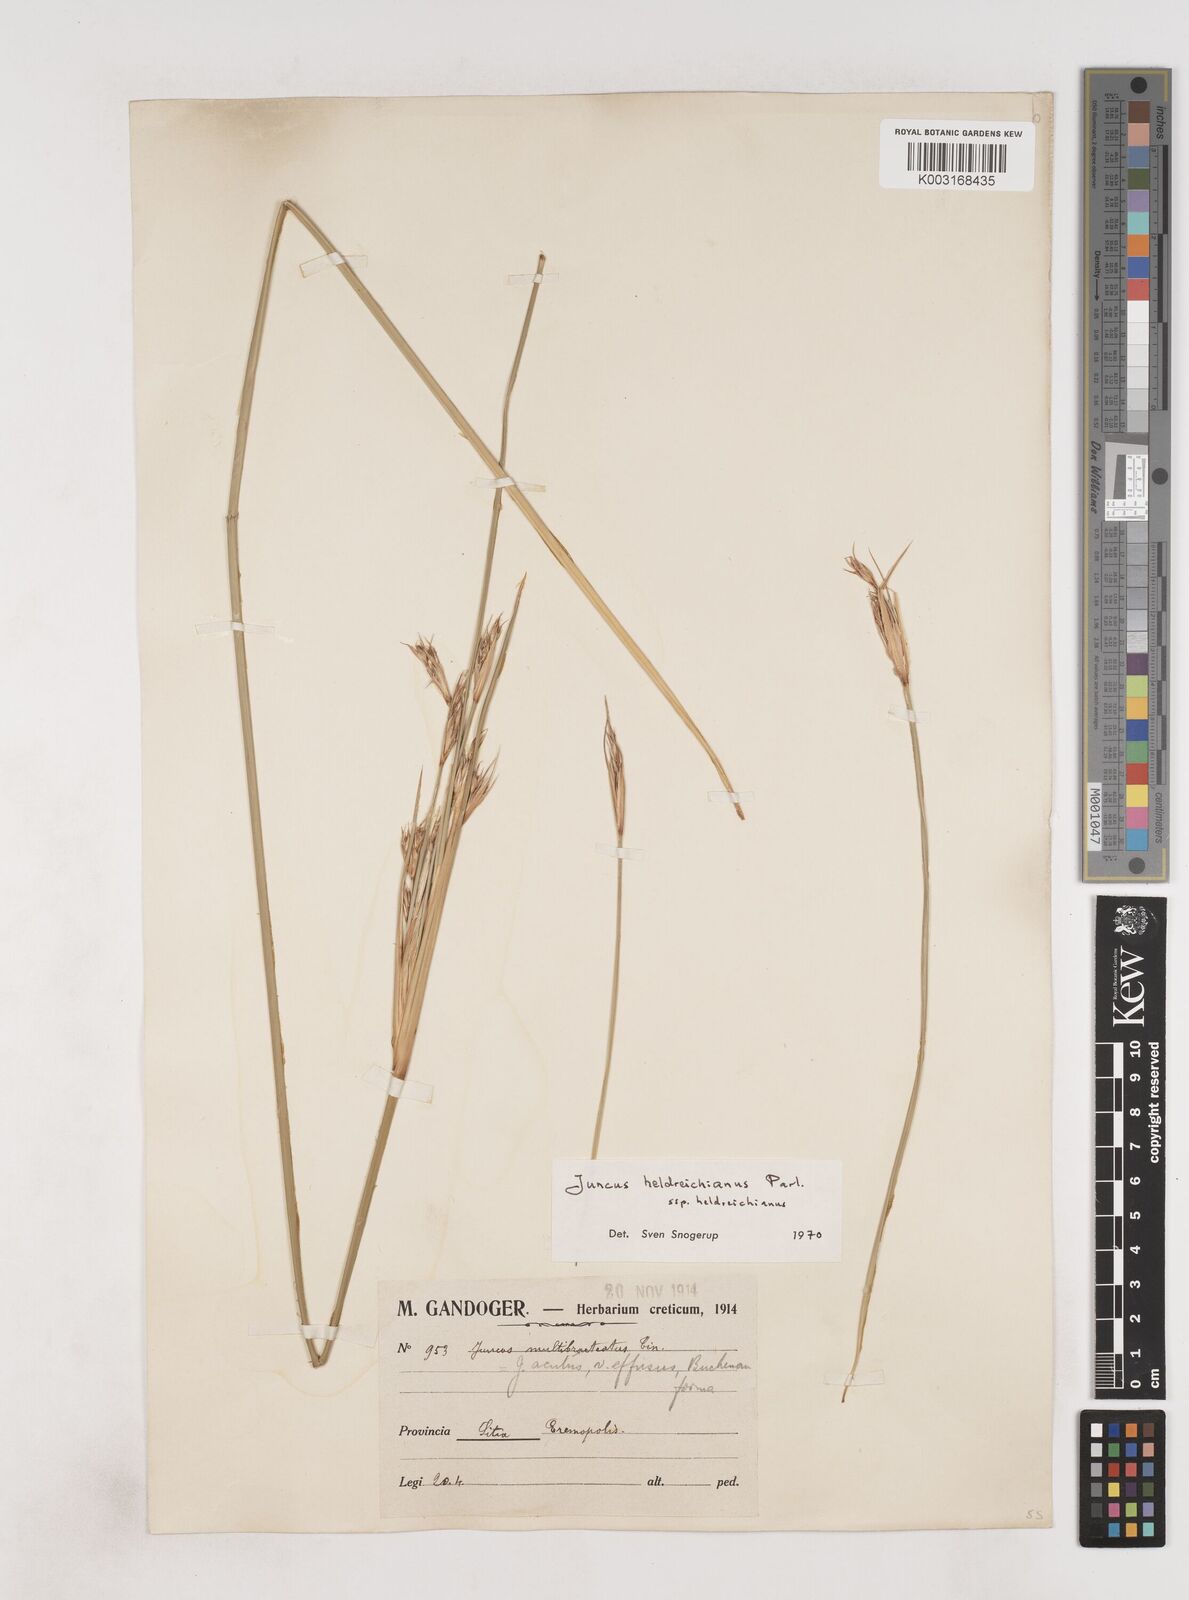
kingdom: Plantae
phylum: Tracheophyta
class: Liliopsida
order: Poales
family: Juncaceae
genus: Juncus
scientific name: Juncus heldreichianus
